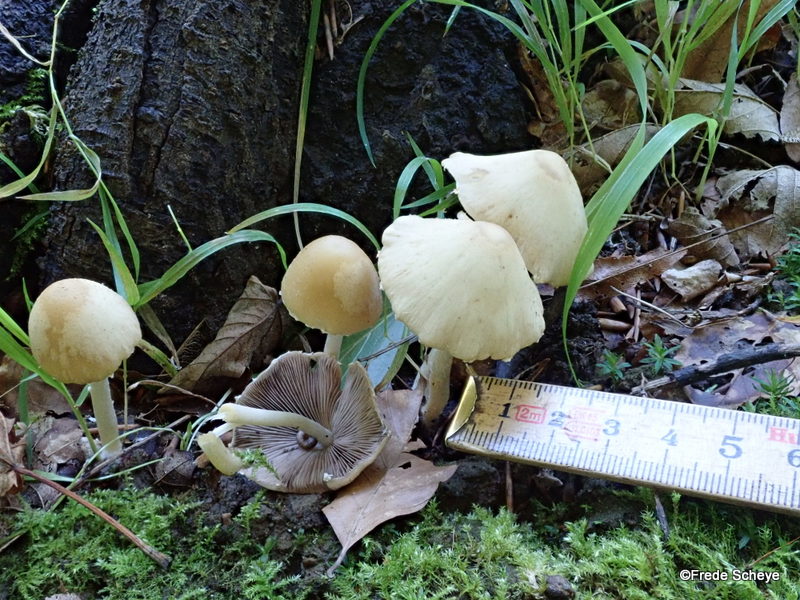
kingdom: Fungi
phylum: Basidiomycota
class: Agaricomycetes
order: Agaricales
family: Psathyrellaceae
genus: Candolleomyces
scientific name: Candolleomyces candolleanus
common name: Candolles mørkhat
